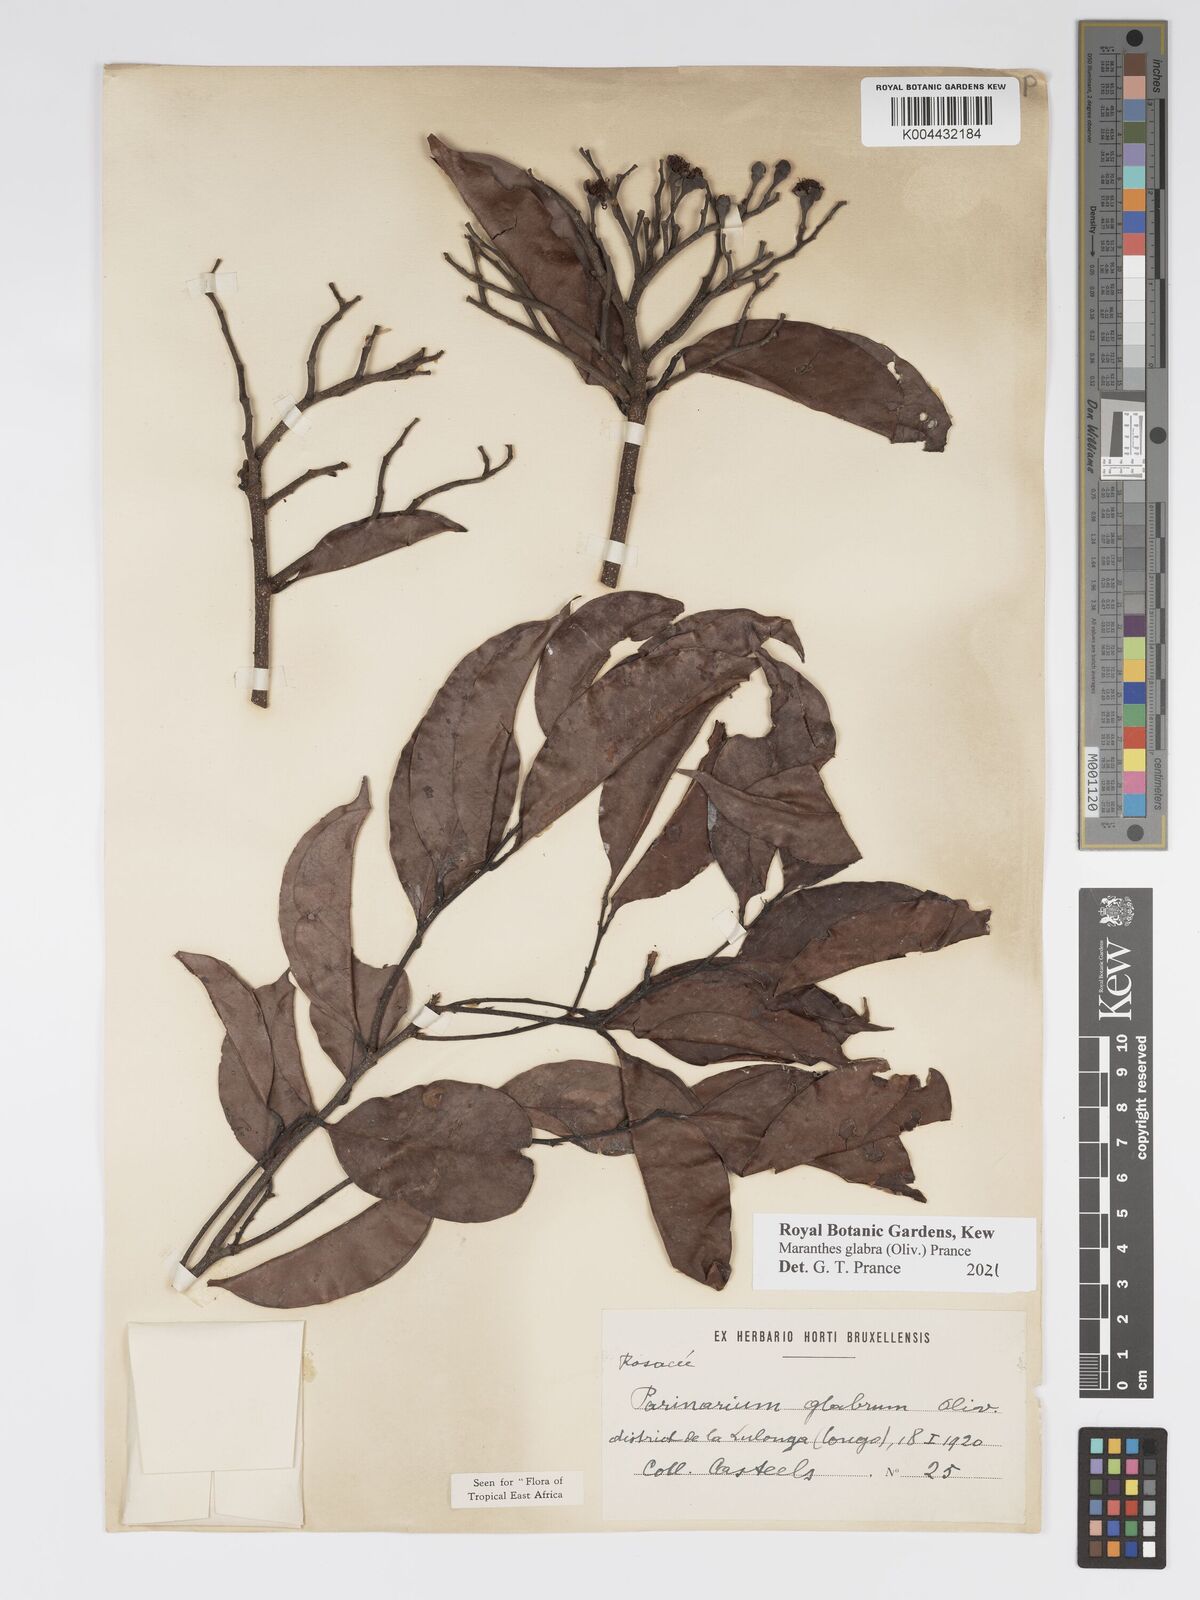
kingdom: Plantae
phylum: Tracheophyta
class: Magnoliopsida
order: Malpighiales
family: Chrysobalanaceae
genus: Maranthes
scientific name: Maranthes glabra
